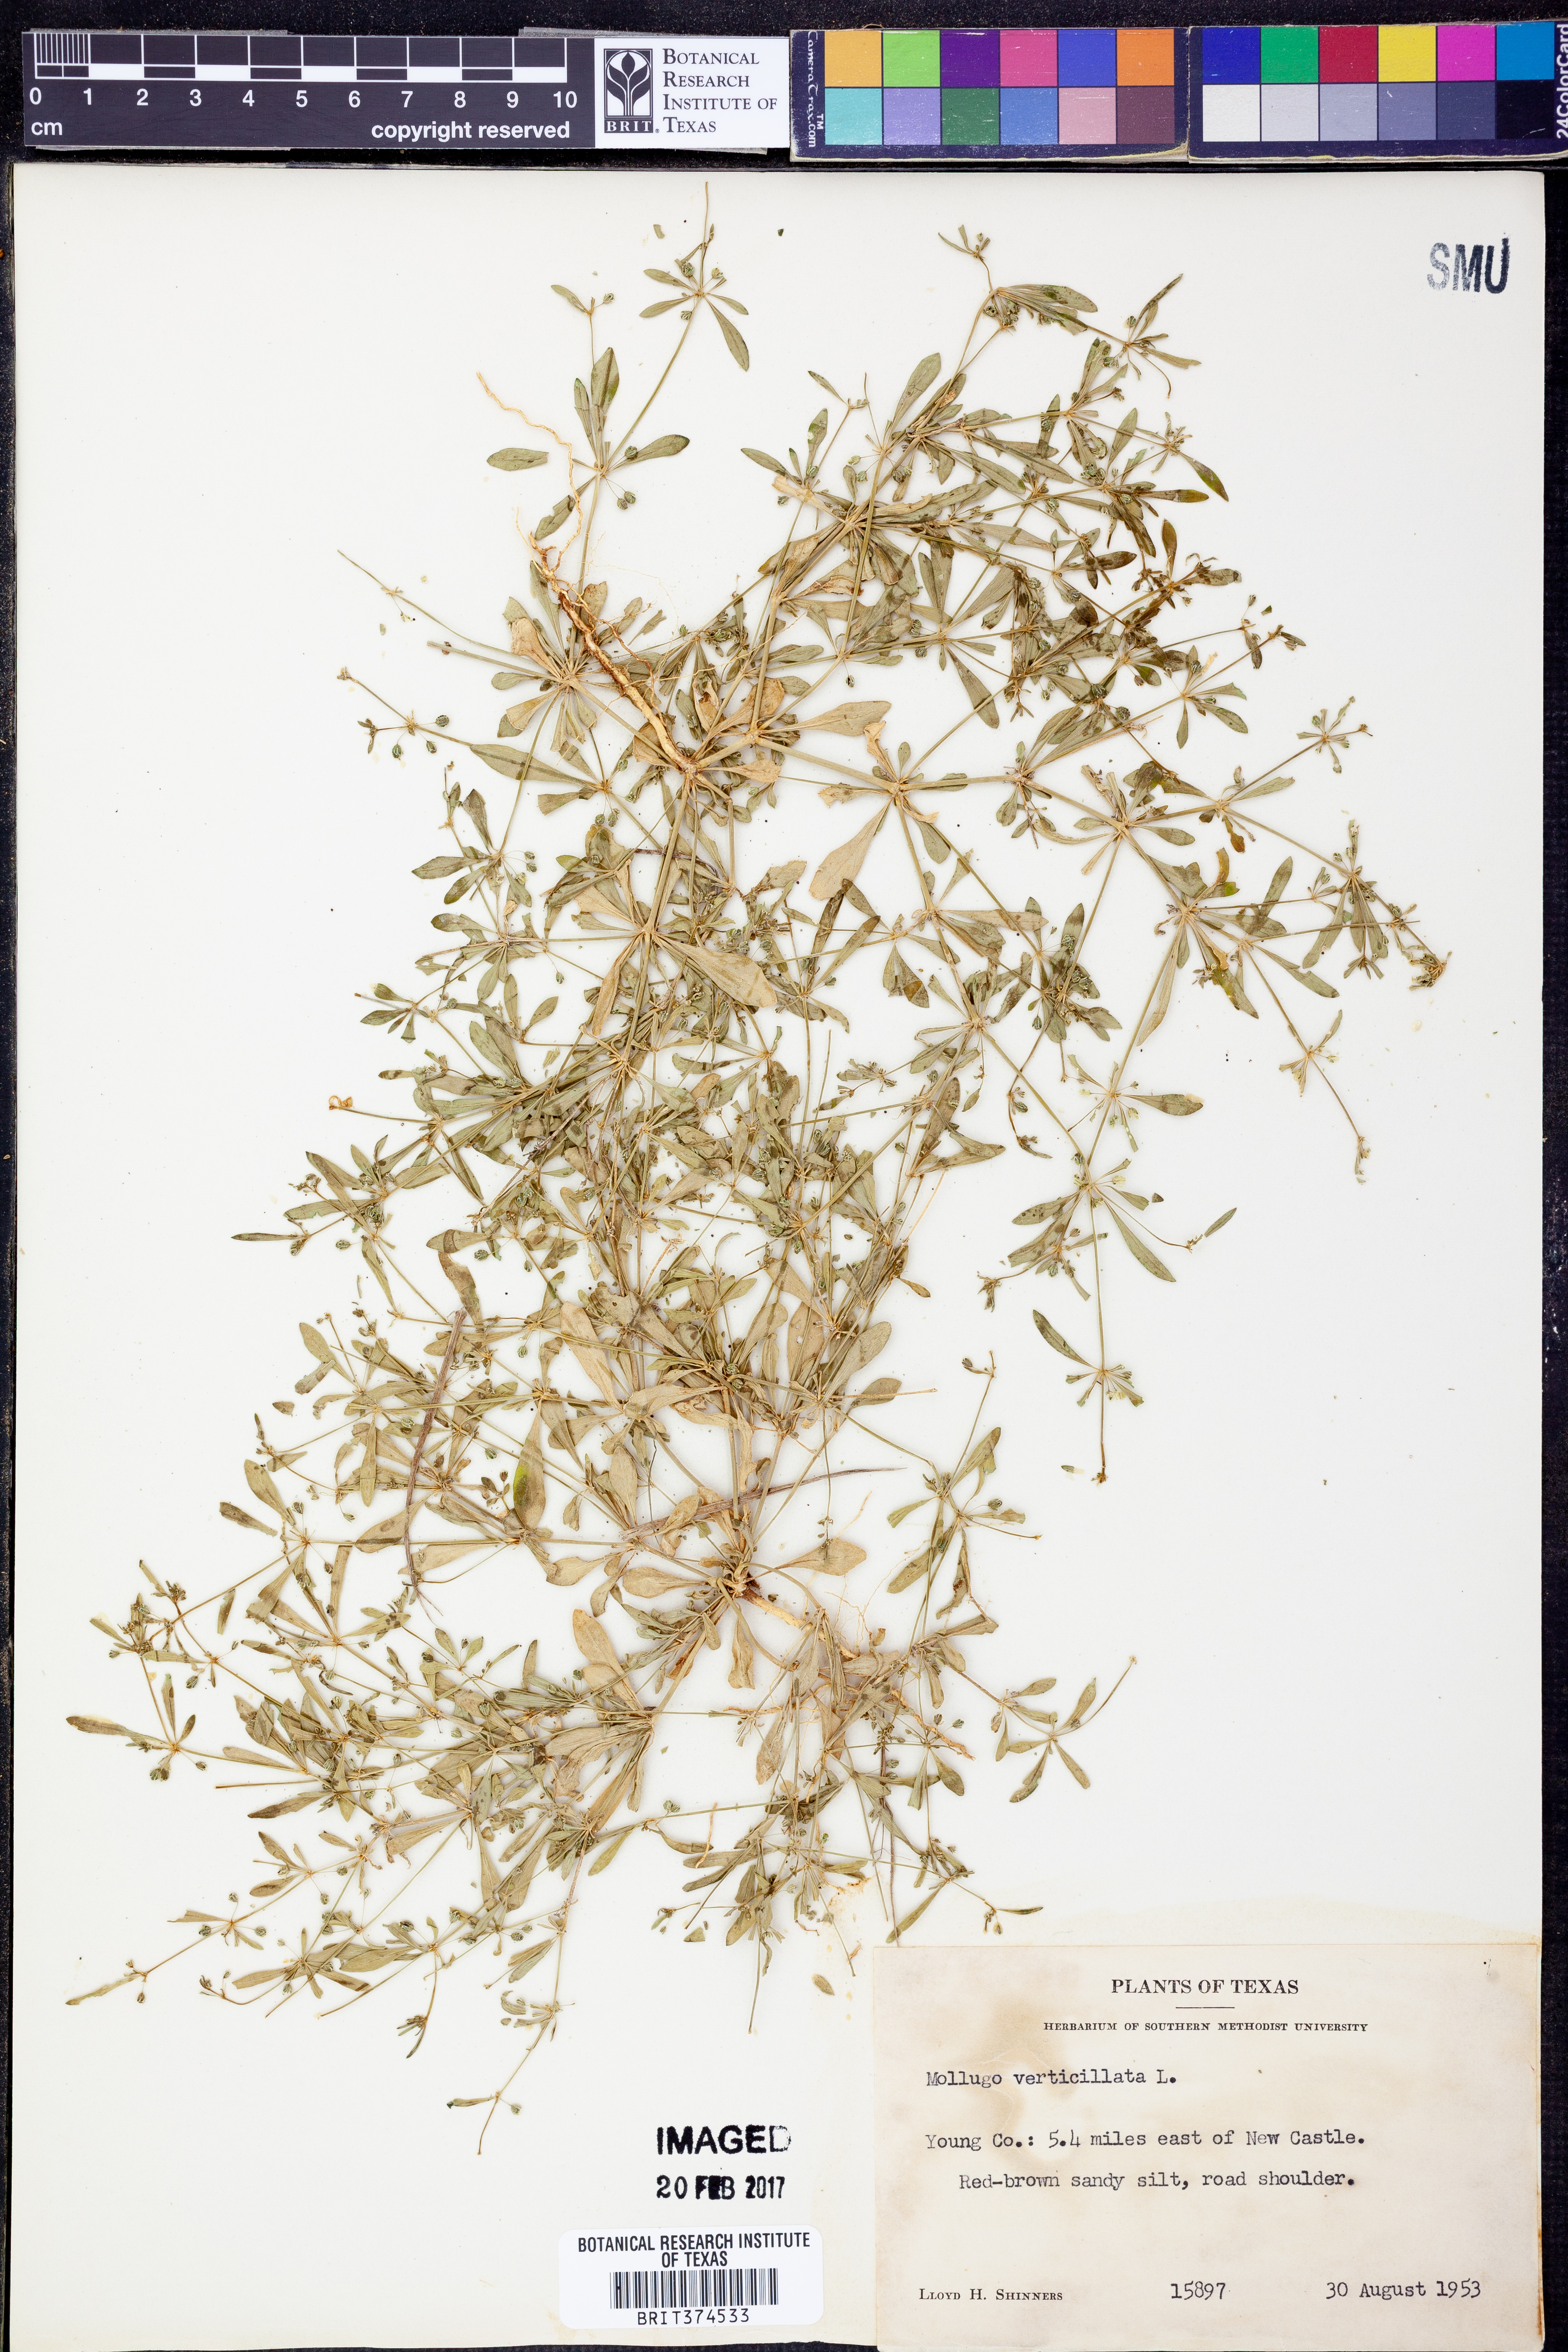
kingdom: Plantae
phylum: Tracheophyta
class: Magnoliopsida
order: Caryophyllales
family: Molluginaceae
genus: Mollugo
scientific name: Mollugo verticillata
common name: Green carpetweed
